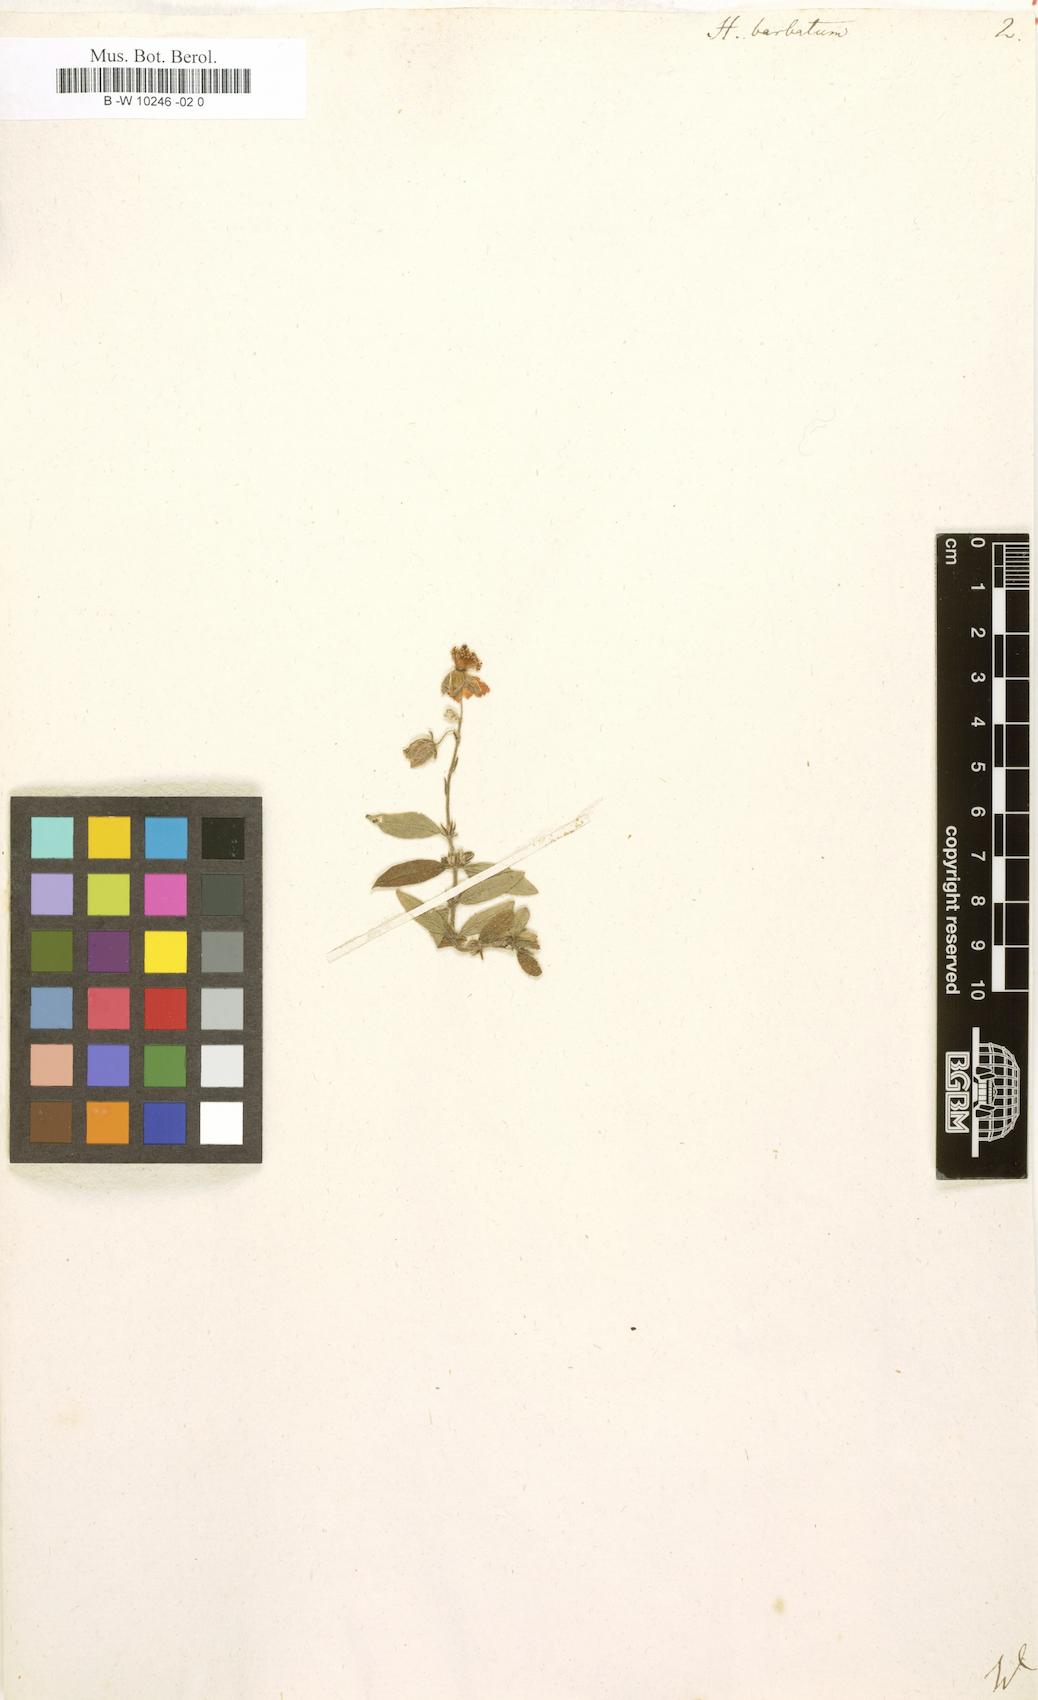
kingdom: Plantae
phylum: Tracheophyta
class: Magnoliopsida
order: Malvales
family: Cistaceae
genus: Helianthemum
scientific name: Helianthemum nummularium
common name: Common rock-rose
